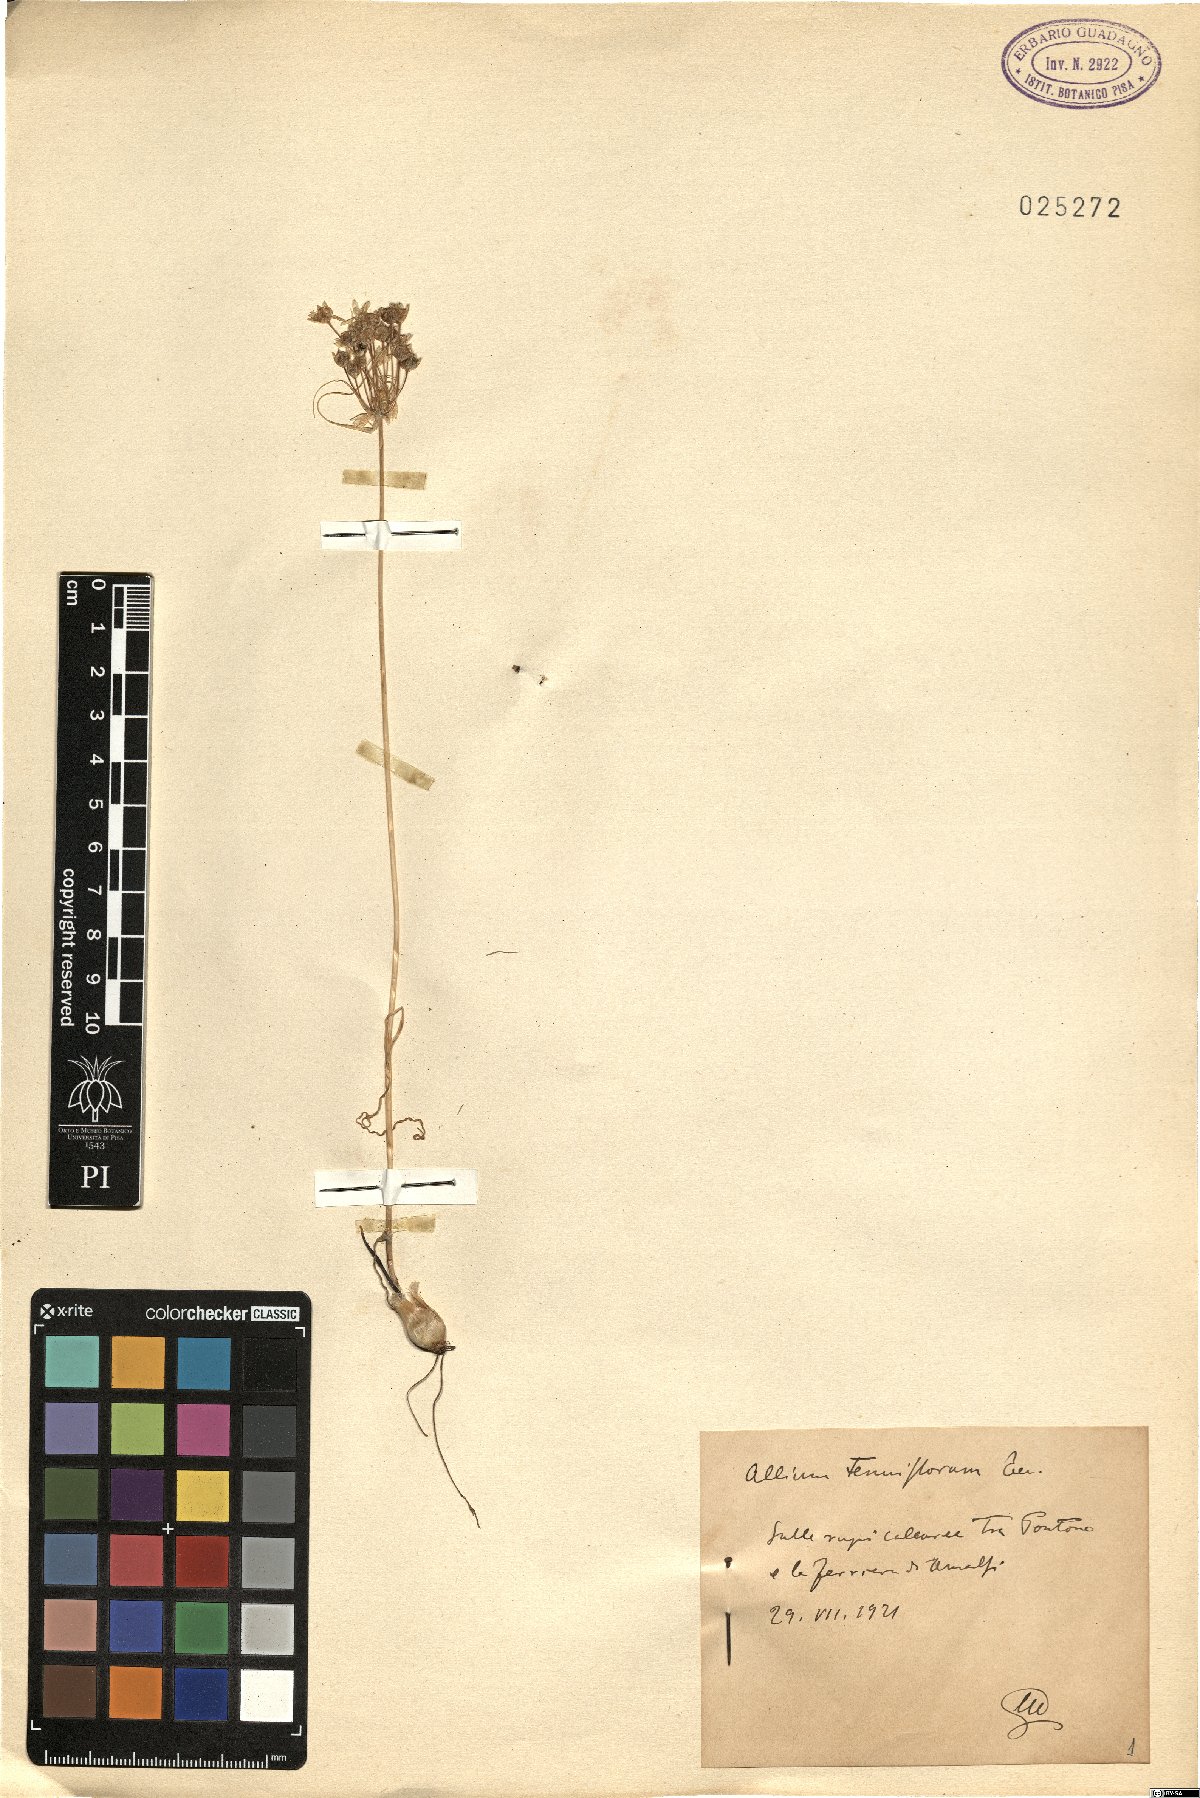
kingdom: Plantae
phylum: Tracheophyta
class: Liliopsida
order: Asparagales
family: Amaryllidaceae
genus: Allium
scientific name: Allium tenuiflorum
